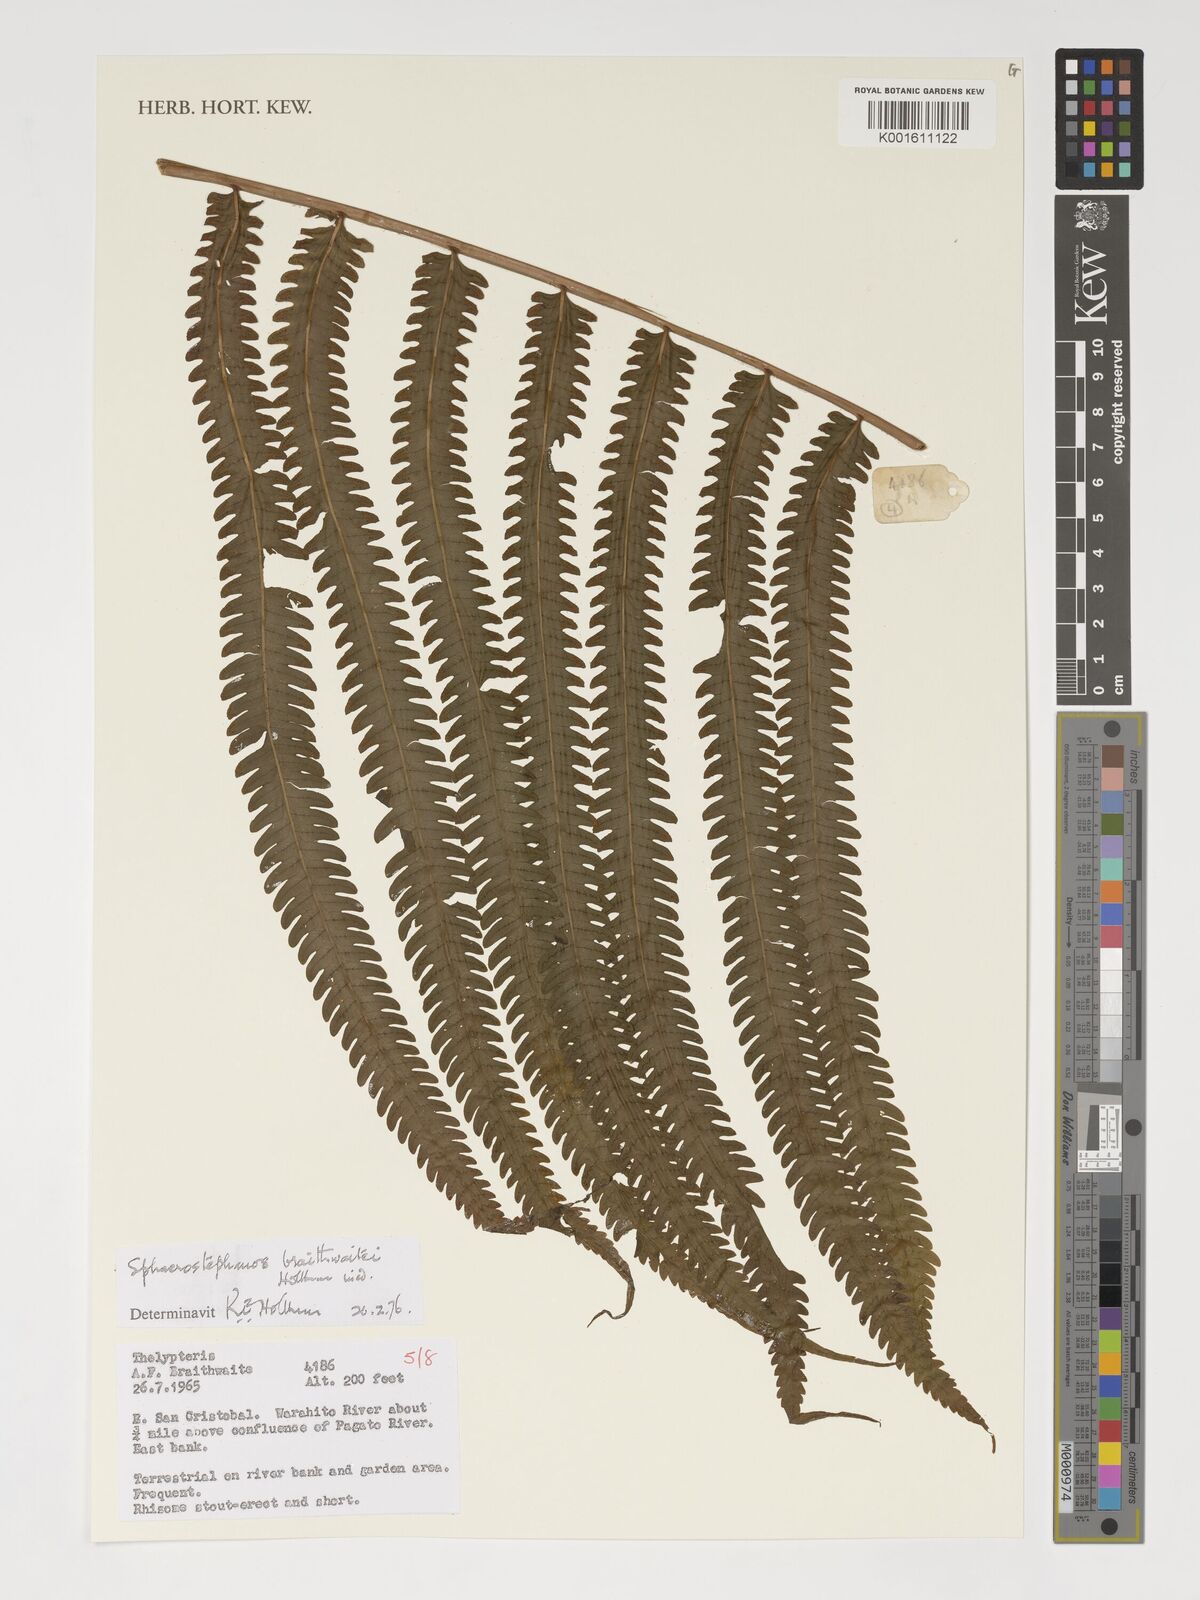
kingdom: Plantae
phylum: Tracheophyta
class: Polypodiopsida
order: Polypodiales
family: Thelypteridaceae
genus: Sphaerostephanos
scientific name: Sphaerostephanos braithwaitei
